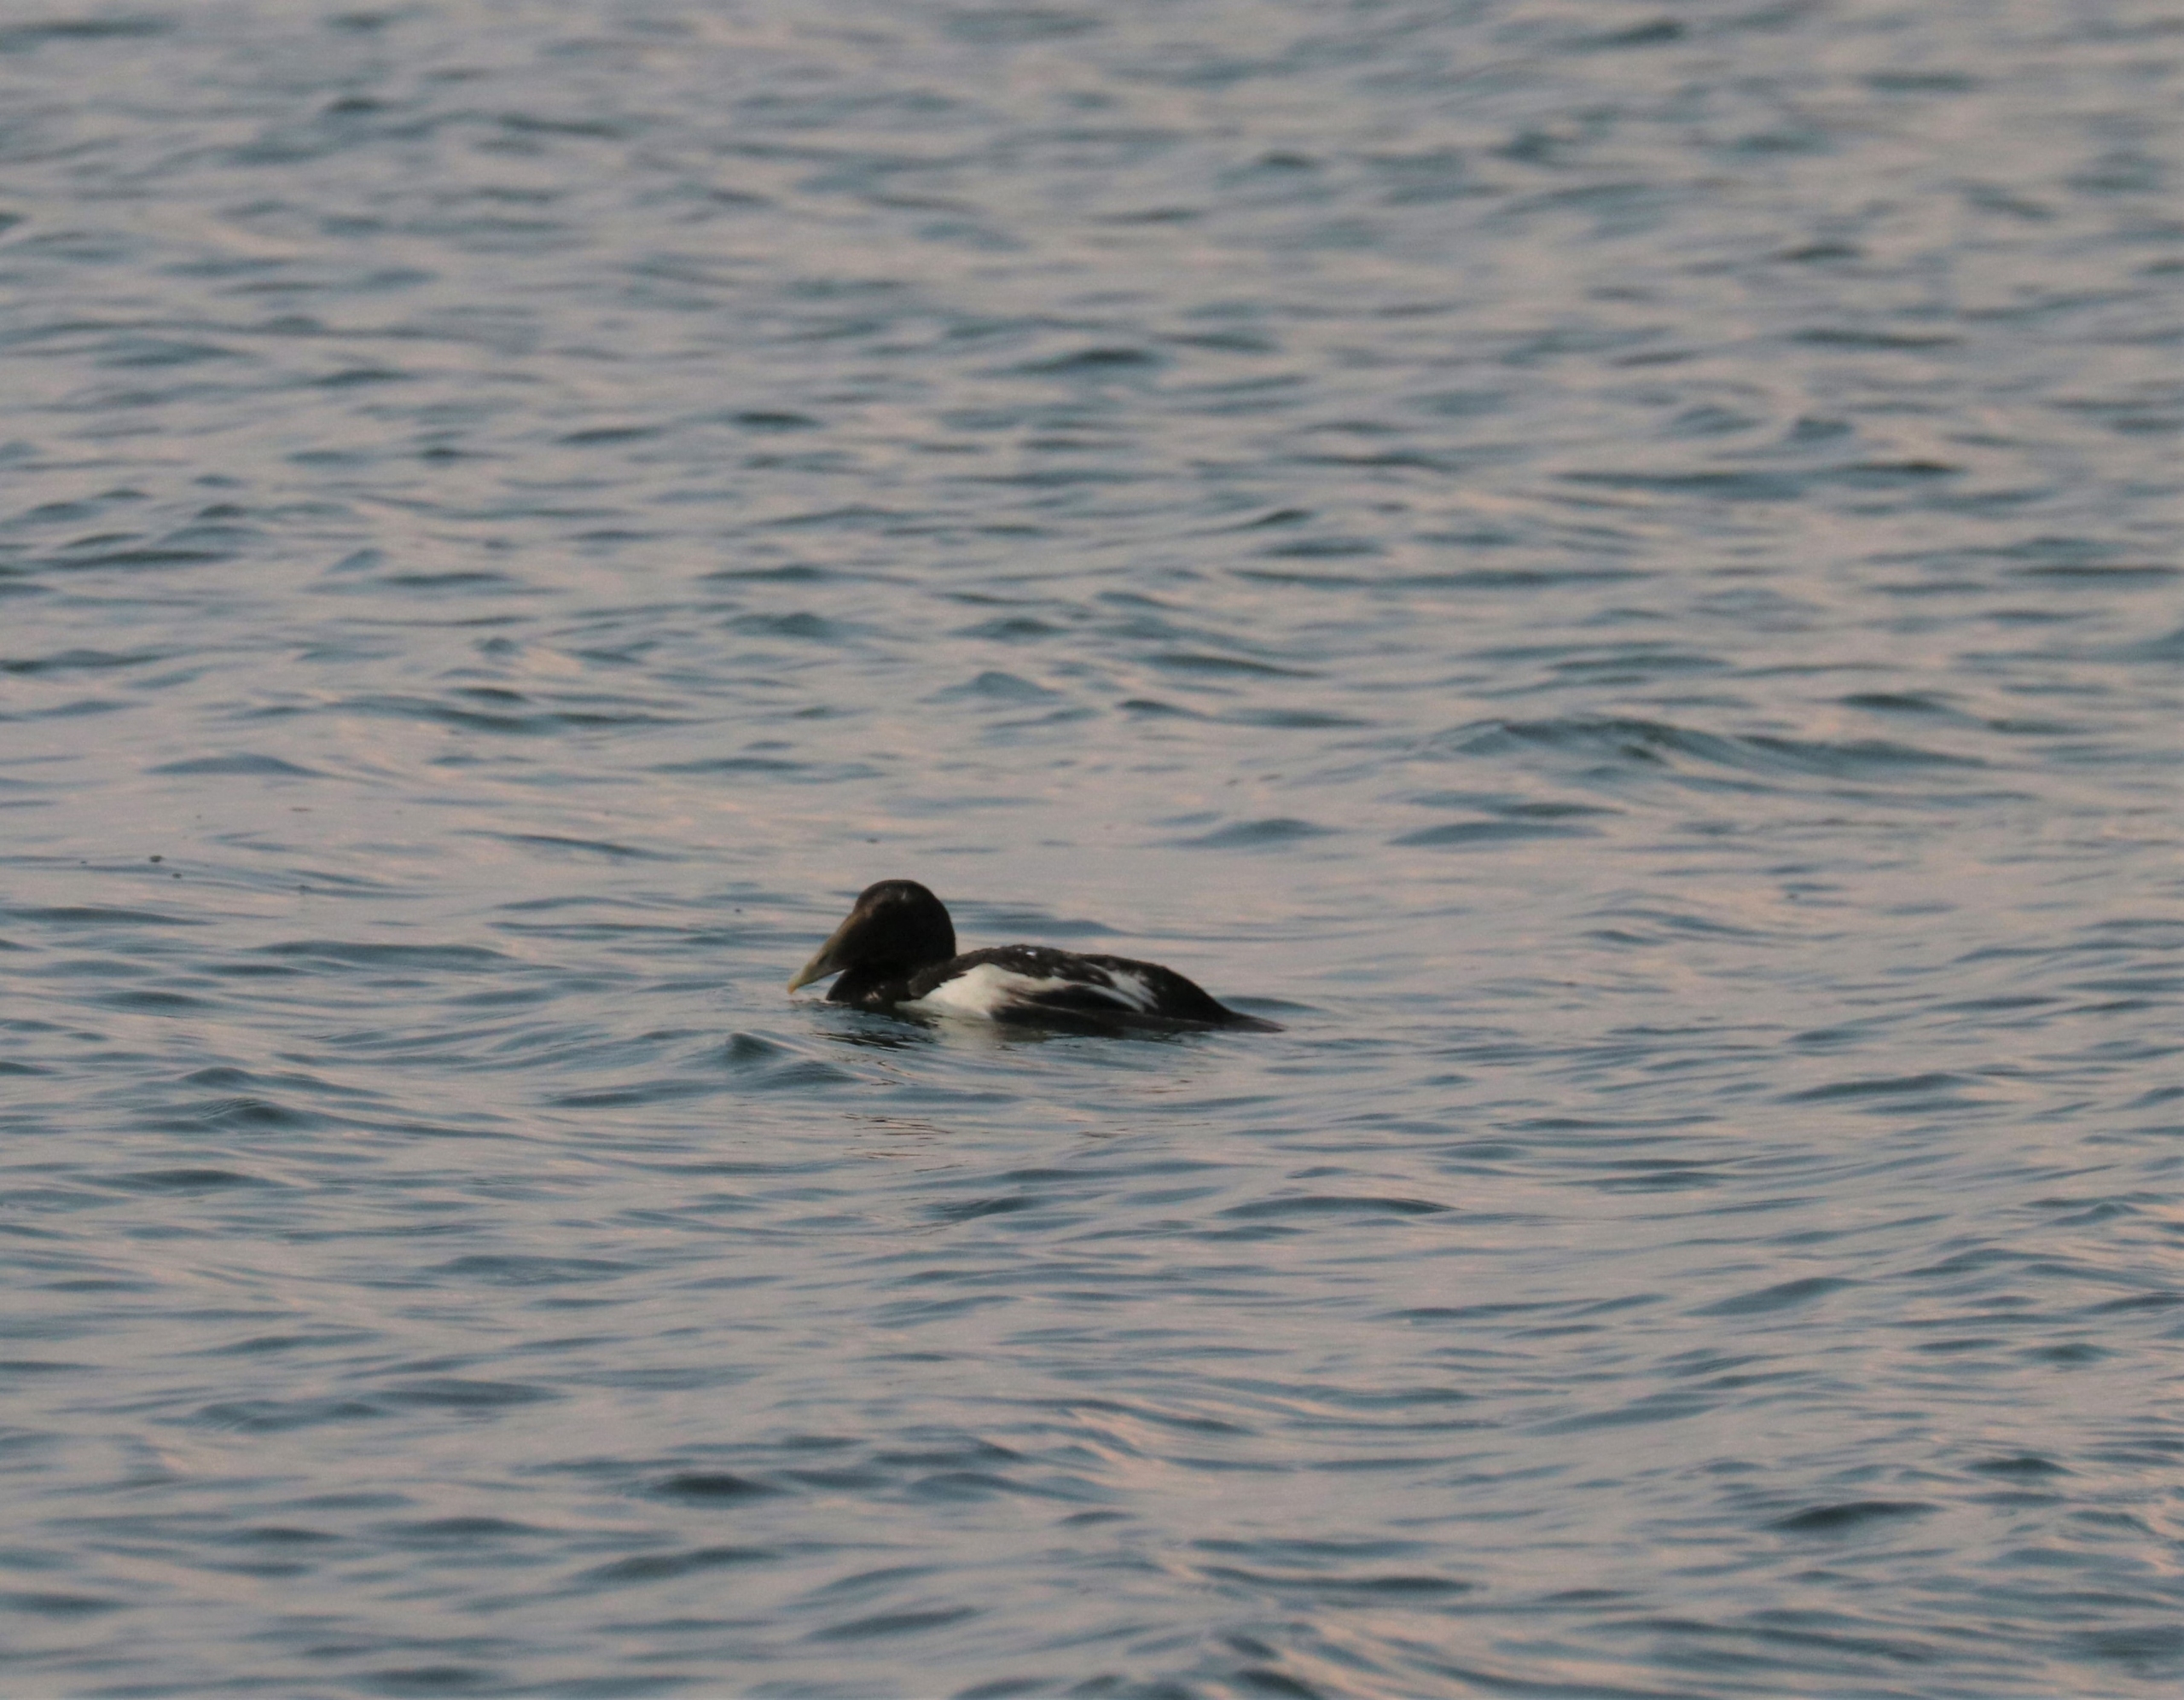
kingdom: Animalia
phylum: Chordata
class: Aves
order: Anseriformes
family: Anatidae
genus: Somateria
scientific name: Somateria mollissima
